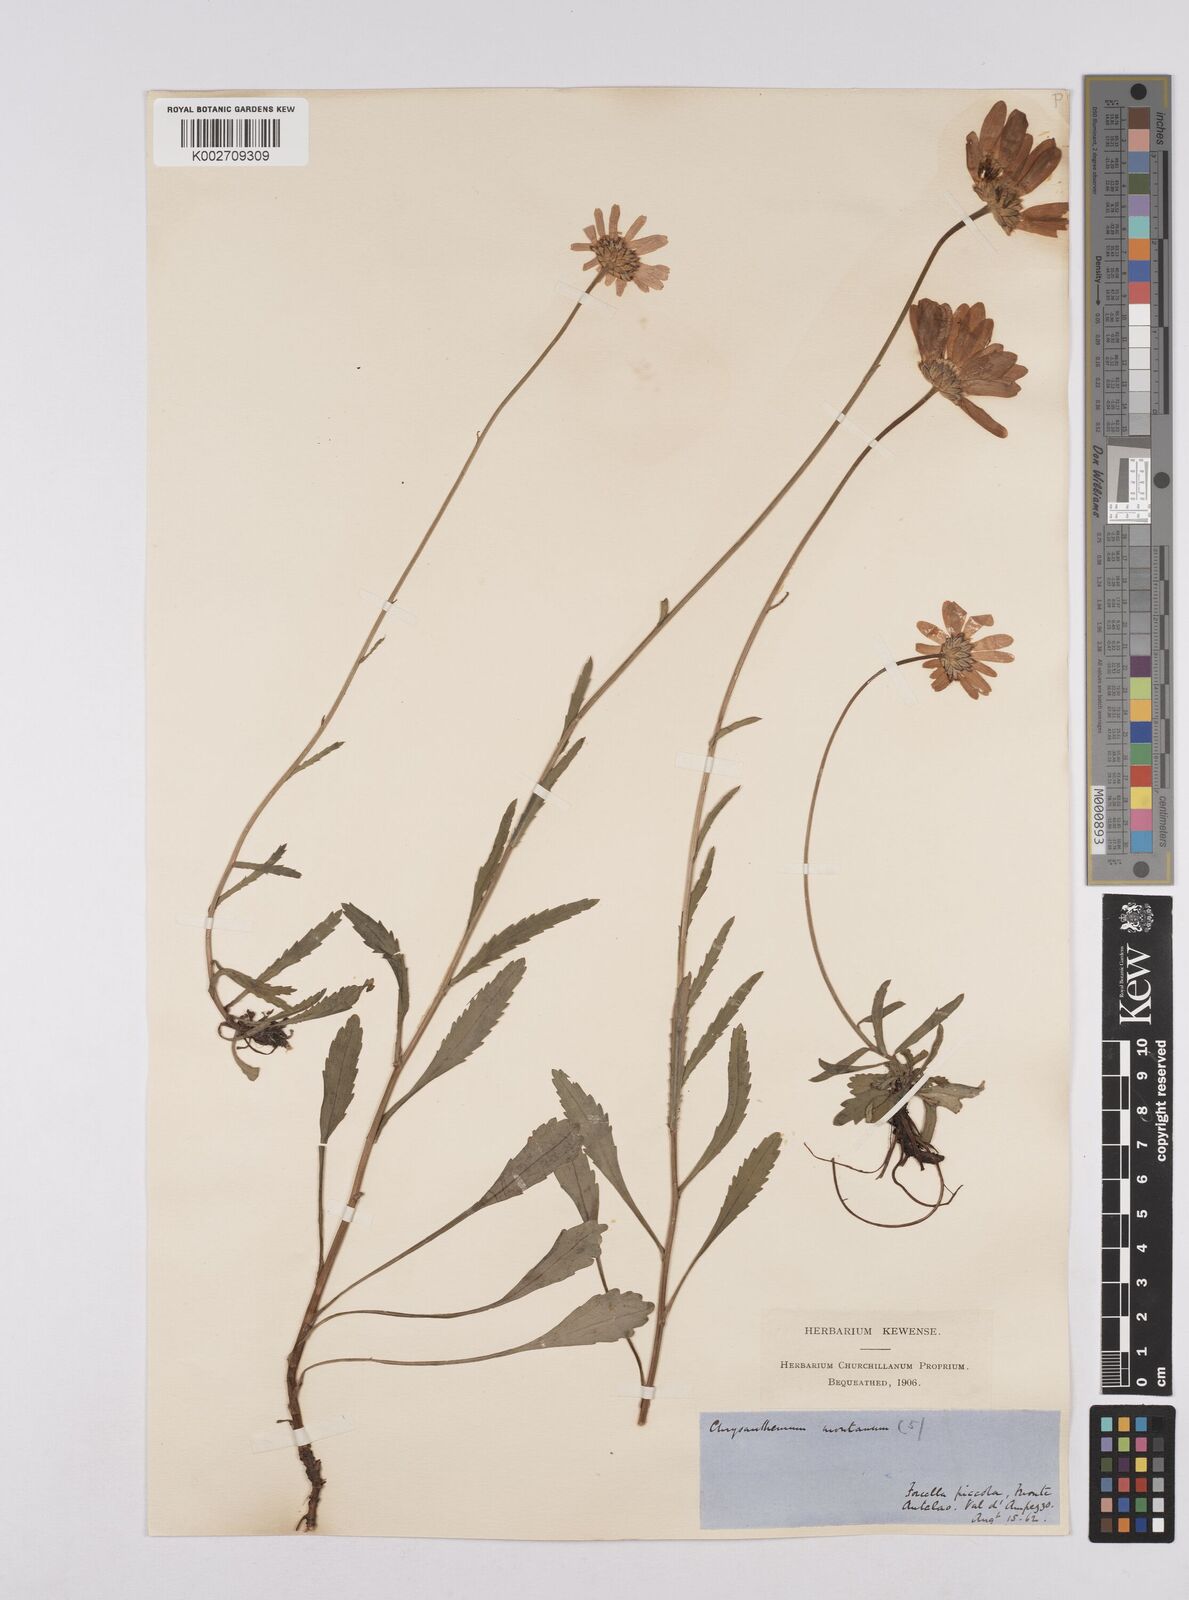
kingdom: Plantae
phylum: Tracheophyta
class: Magnoliopsida
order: Asterales
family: Asteraceae
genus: Leucanthemum
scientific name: Leucanthemum chloroticum
